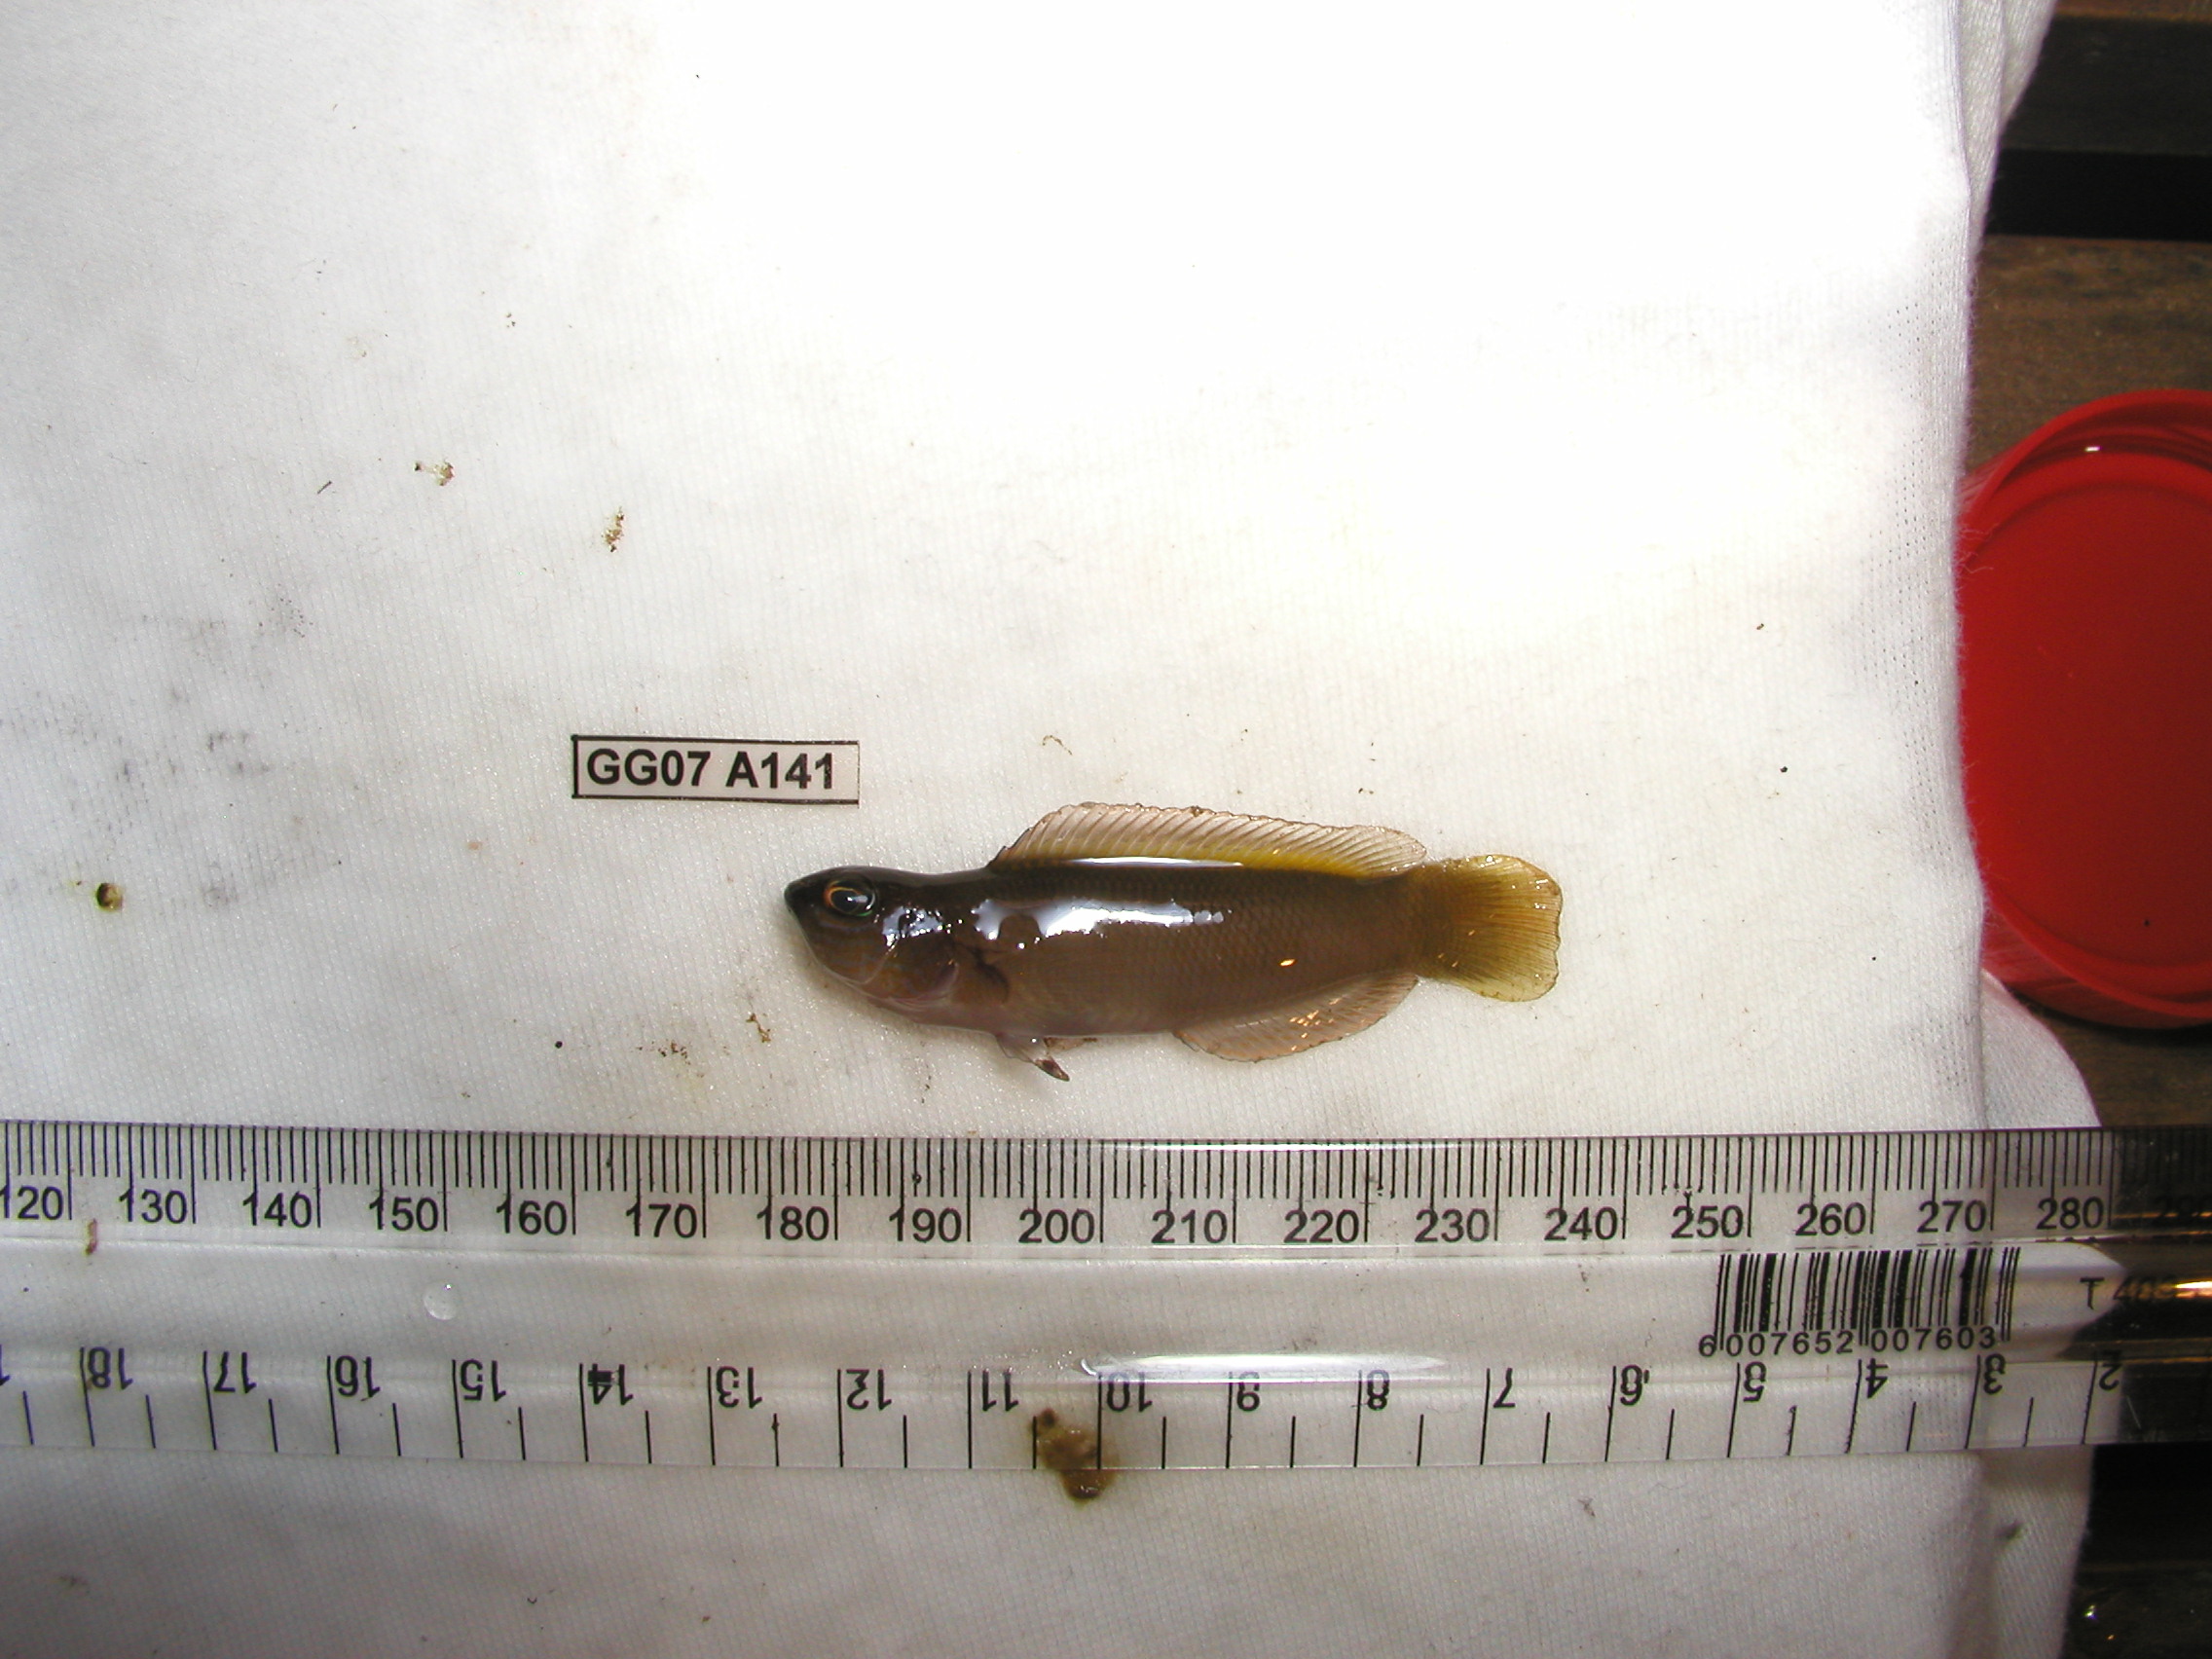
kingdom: Animalia
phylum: Chordata
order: Perciformes
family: Pseudochromidae
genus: Pseudochromis
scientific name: Pseudochromis natalensis
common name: Natal dottyback
